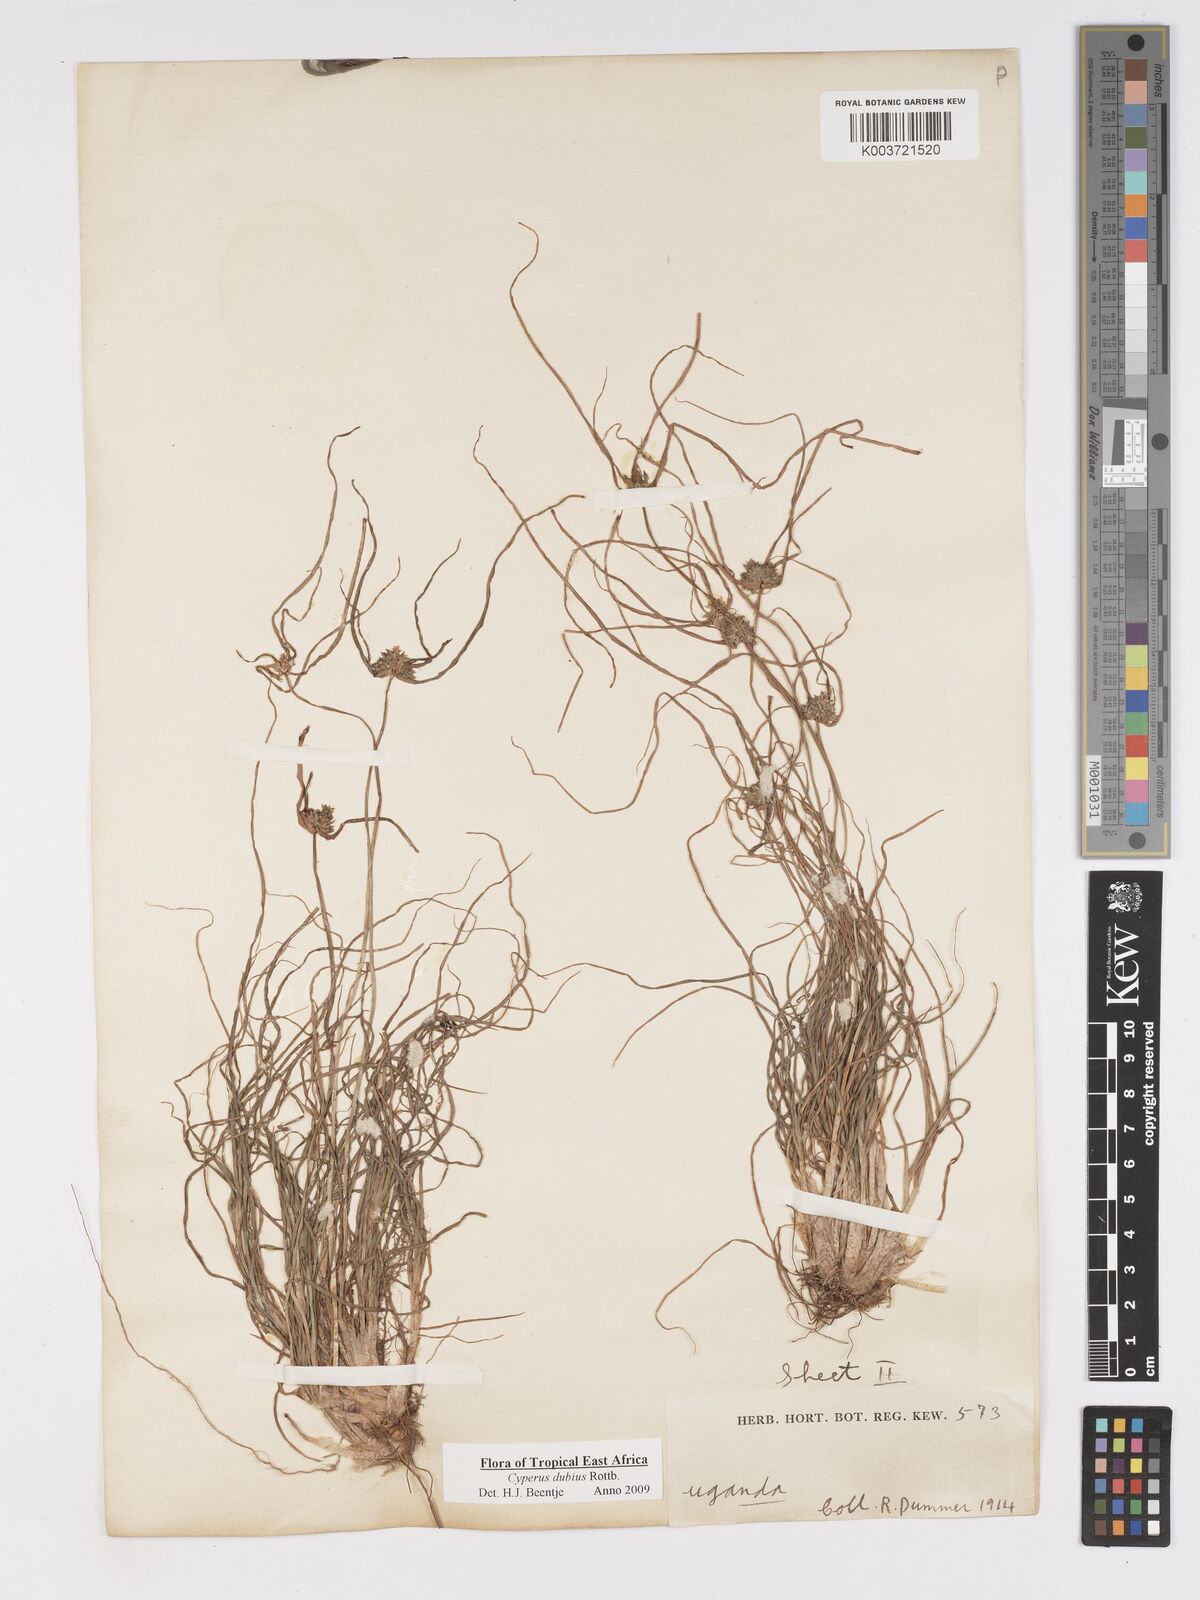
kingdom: Plantae
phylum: Tracheophyta
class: Liliopsida
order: Poales
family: Cyperaceae
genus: Cyperus
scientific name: Cyperus dubius
